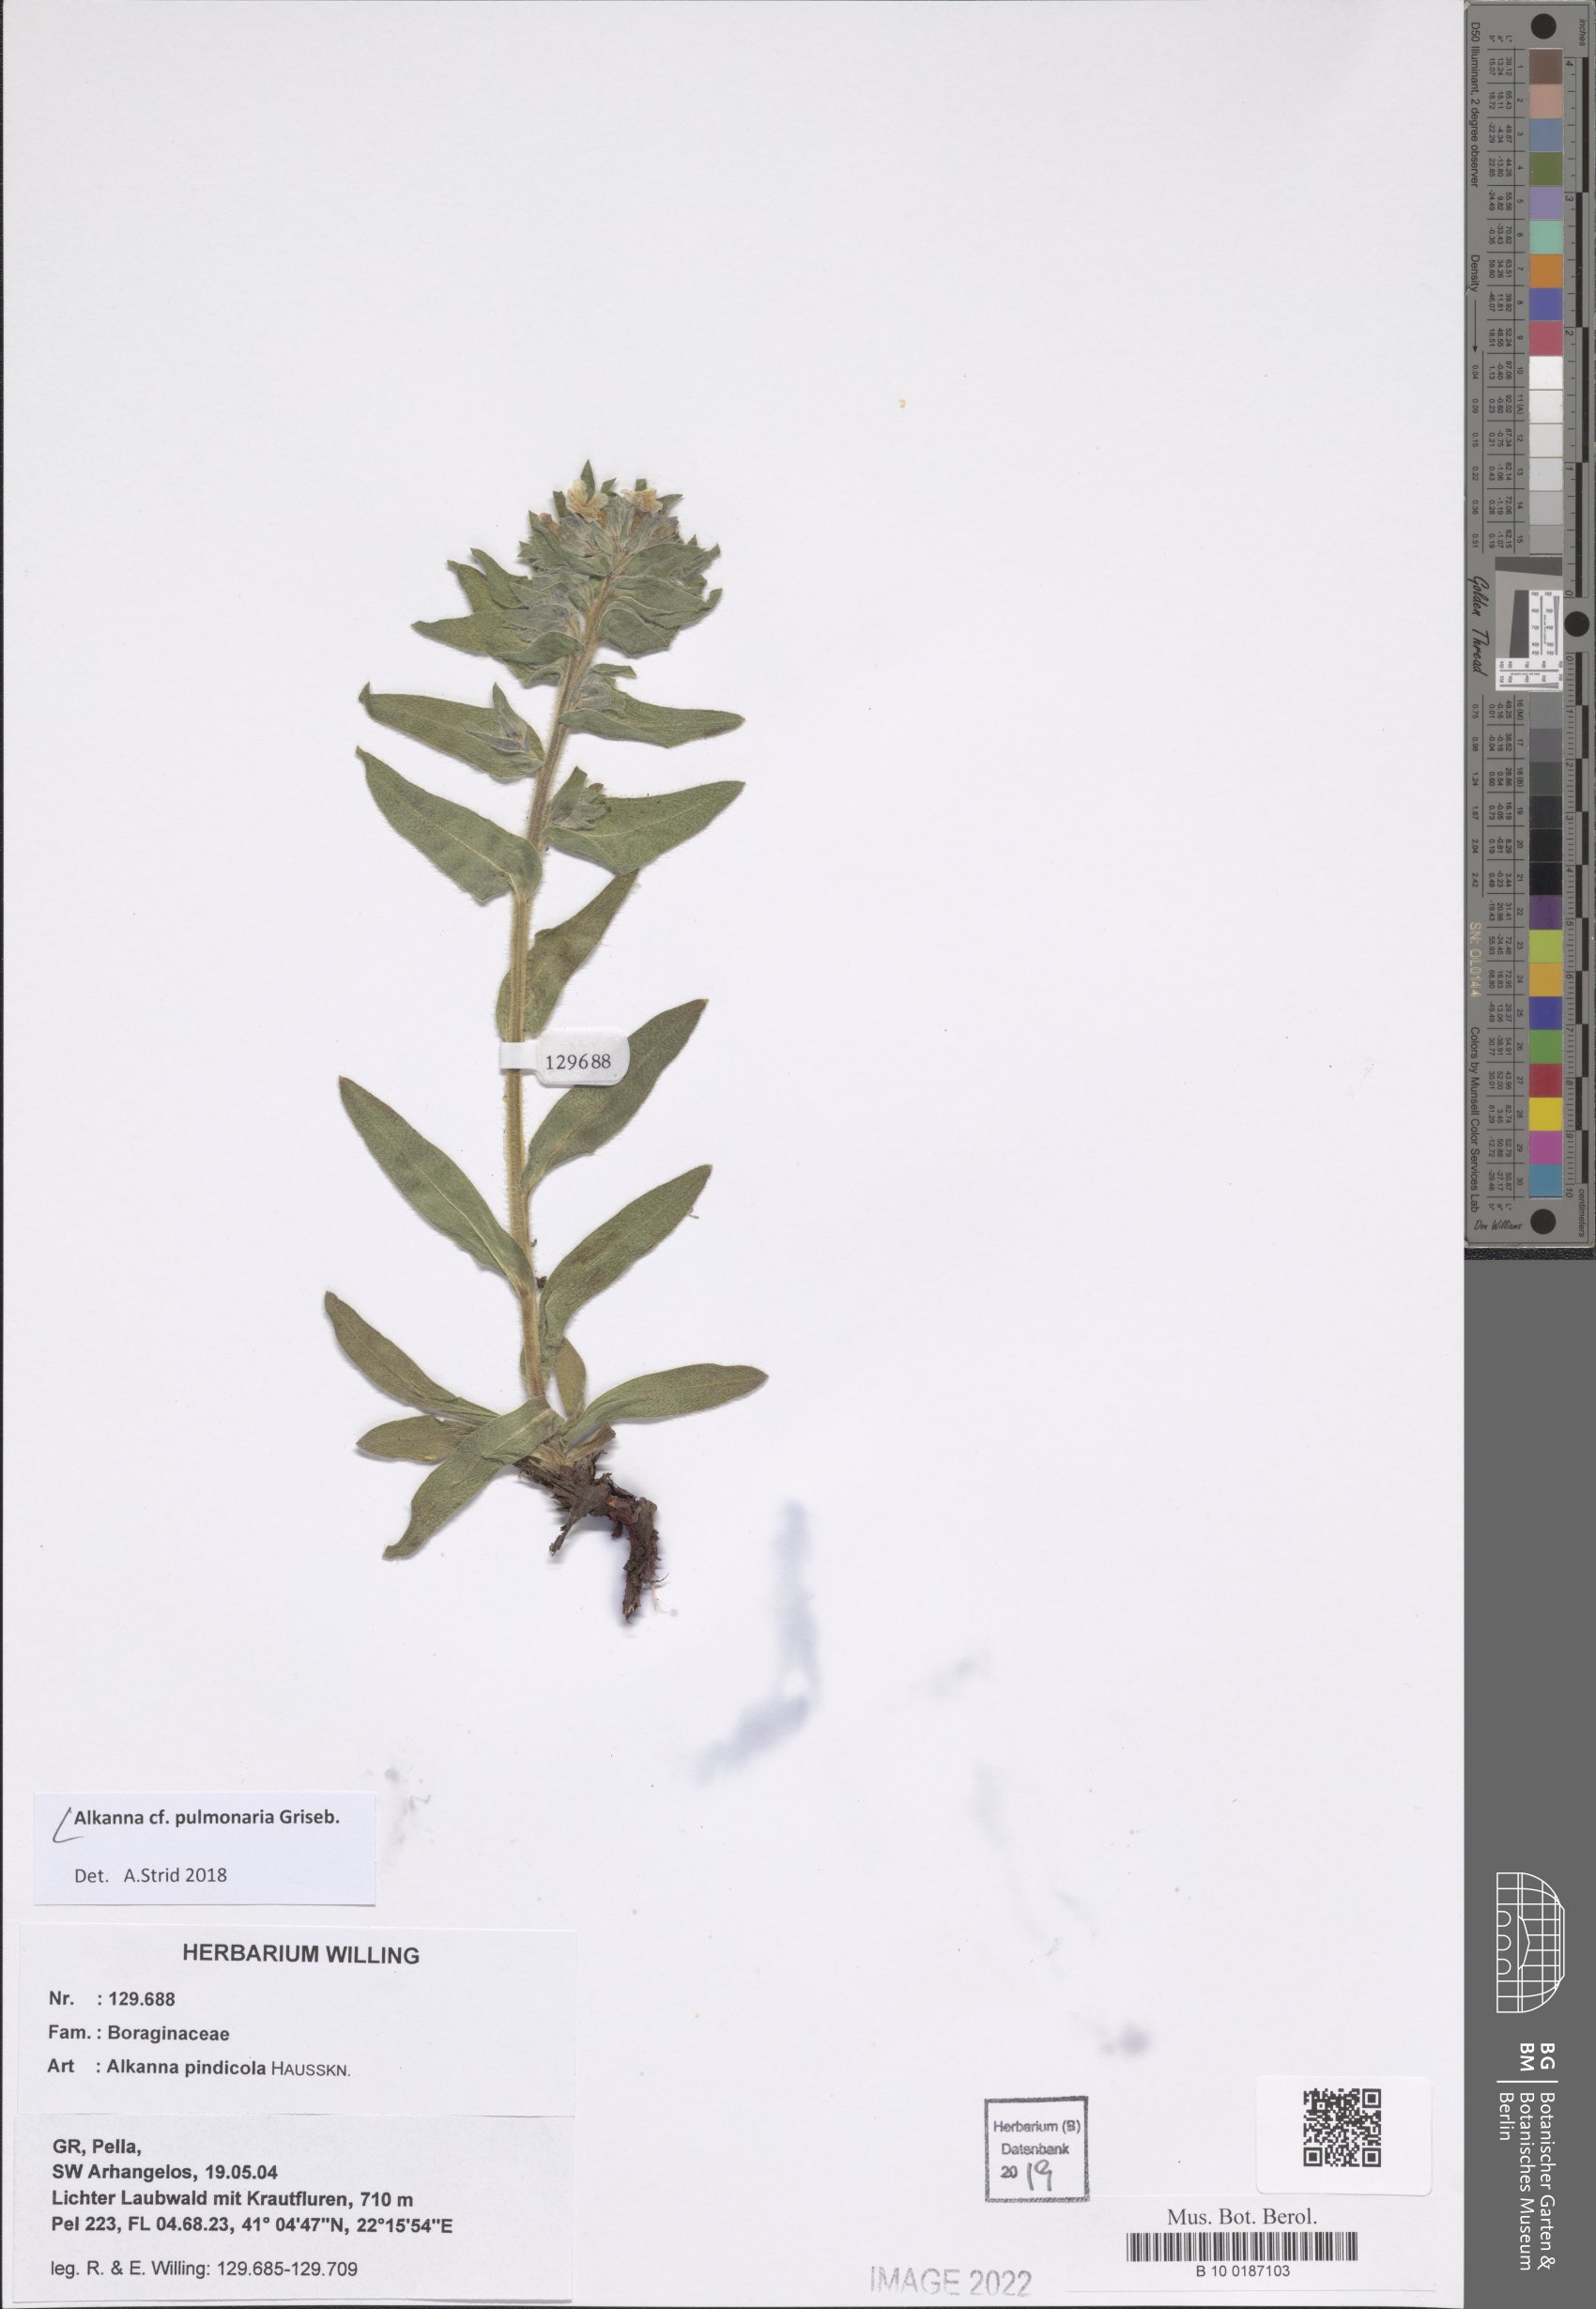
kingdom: Plantae
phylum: Tracheophyta
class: Magnoliopsida
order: Boraginales
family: Boraginaceae
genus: Alkanna
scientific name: Alkanna pulmonaria
